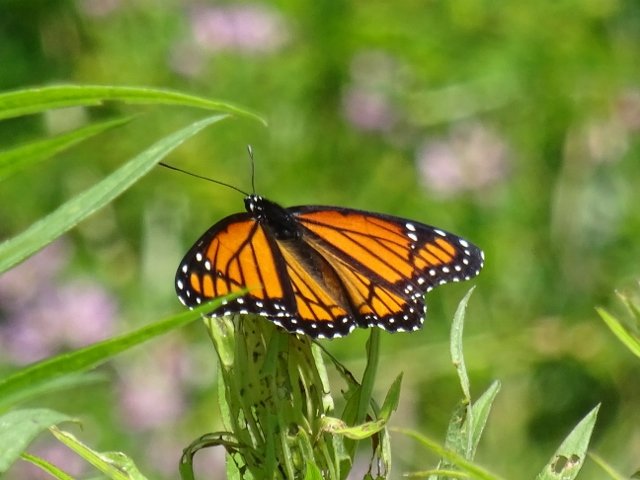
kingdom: Animalia
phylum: Arthropoda
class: Insecta
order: Lepidoptera
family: Nymphalidae
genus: Limenitis
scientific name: Limenitis archippus
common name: Viceroy
